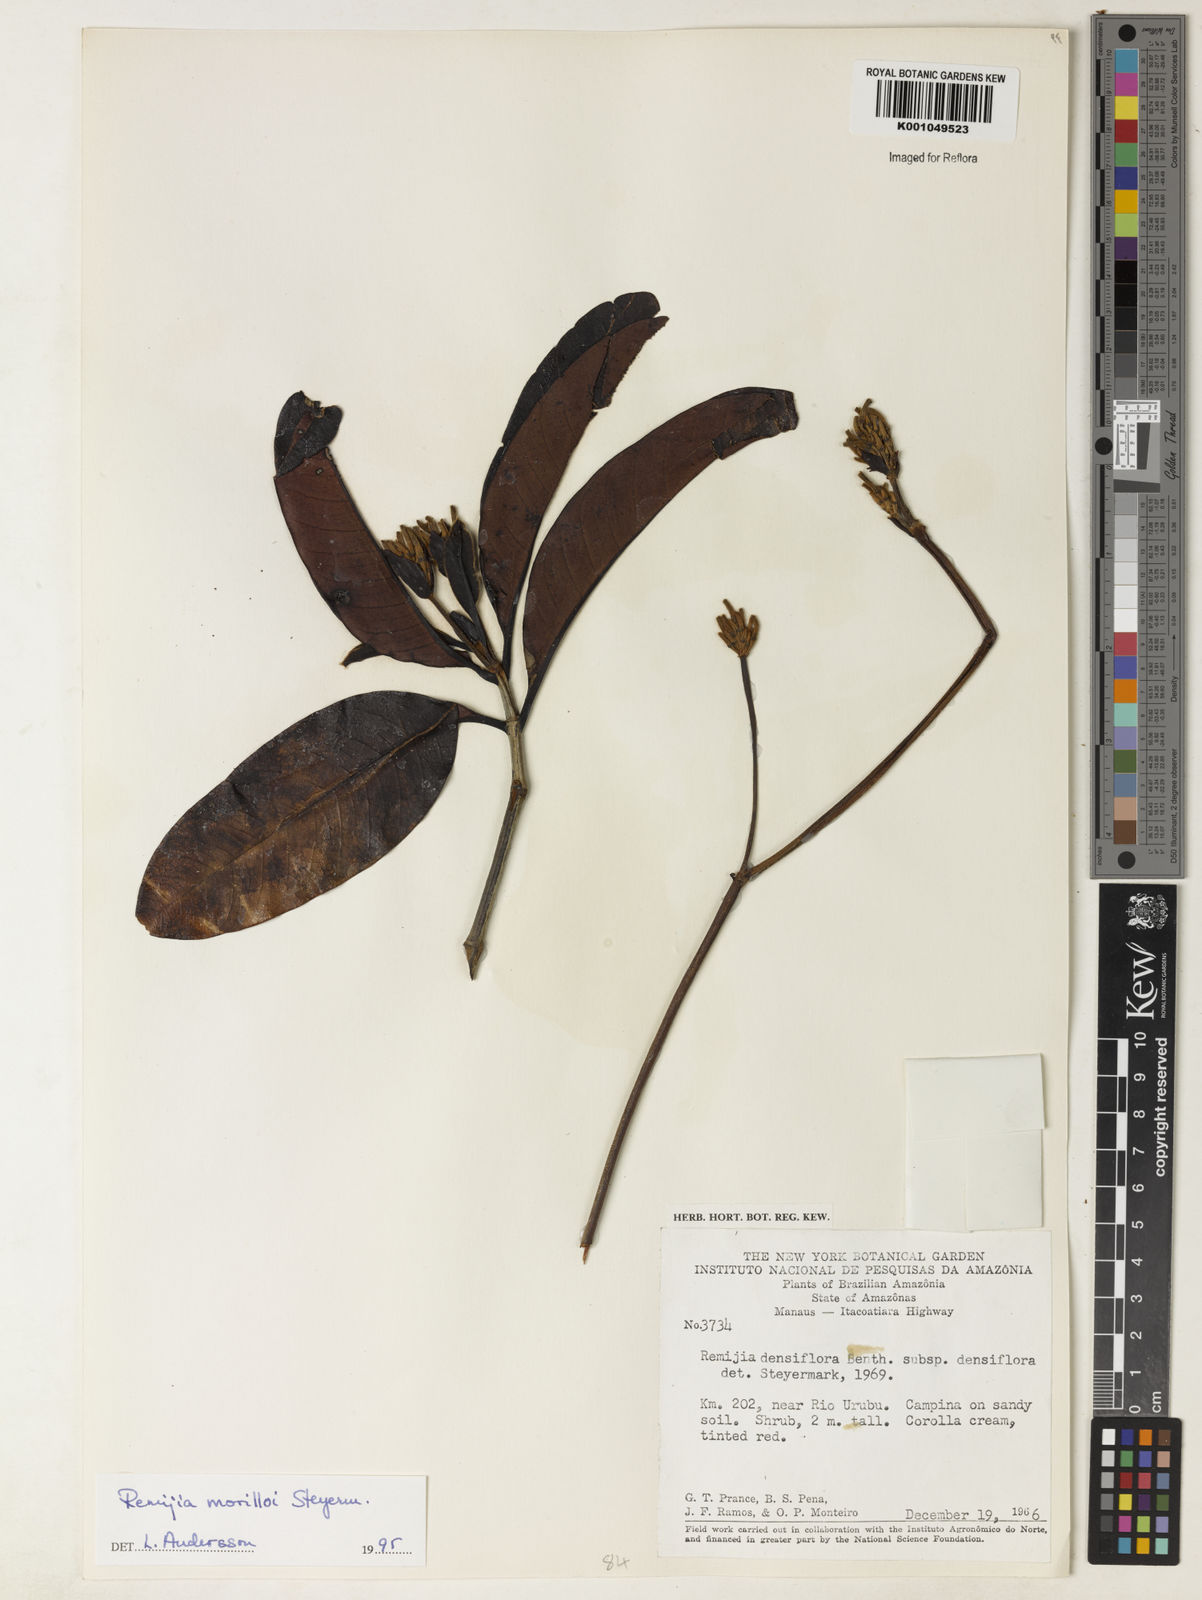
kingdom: Plantae
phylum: Tracheophyta
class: Magnoliopsida
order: Gentianales
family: Rubiaceae
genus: Remijia
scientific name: Remijia morilloi
